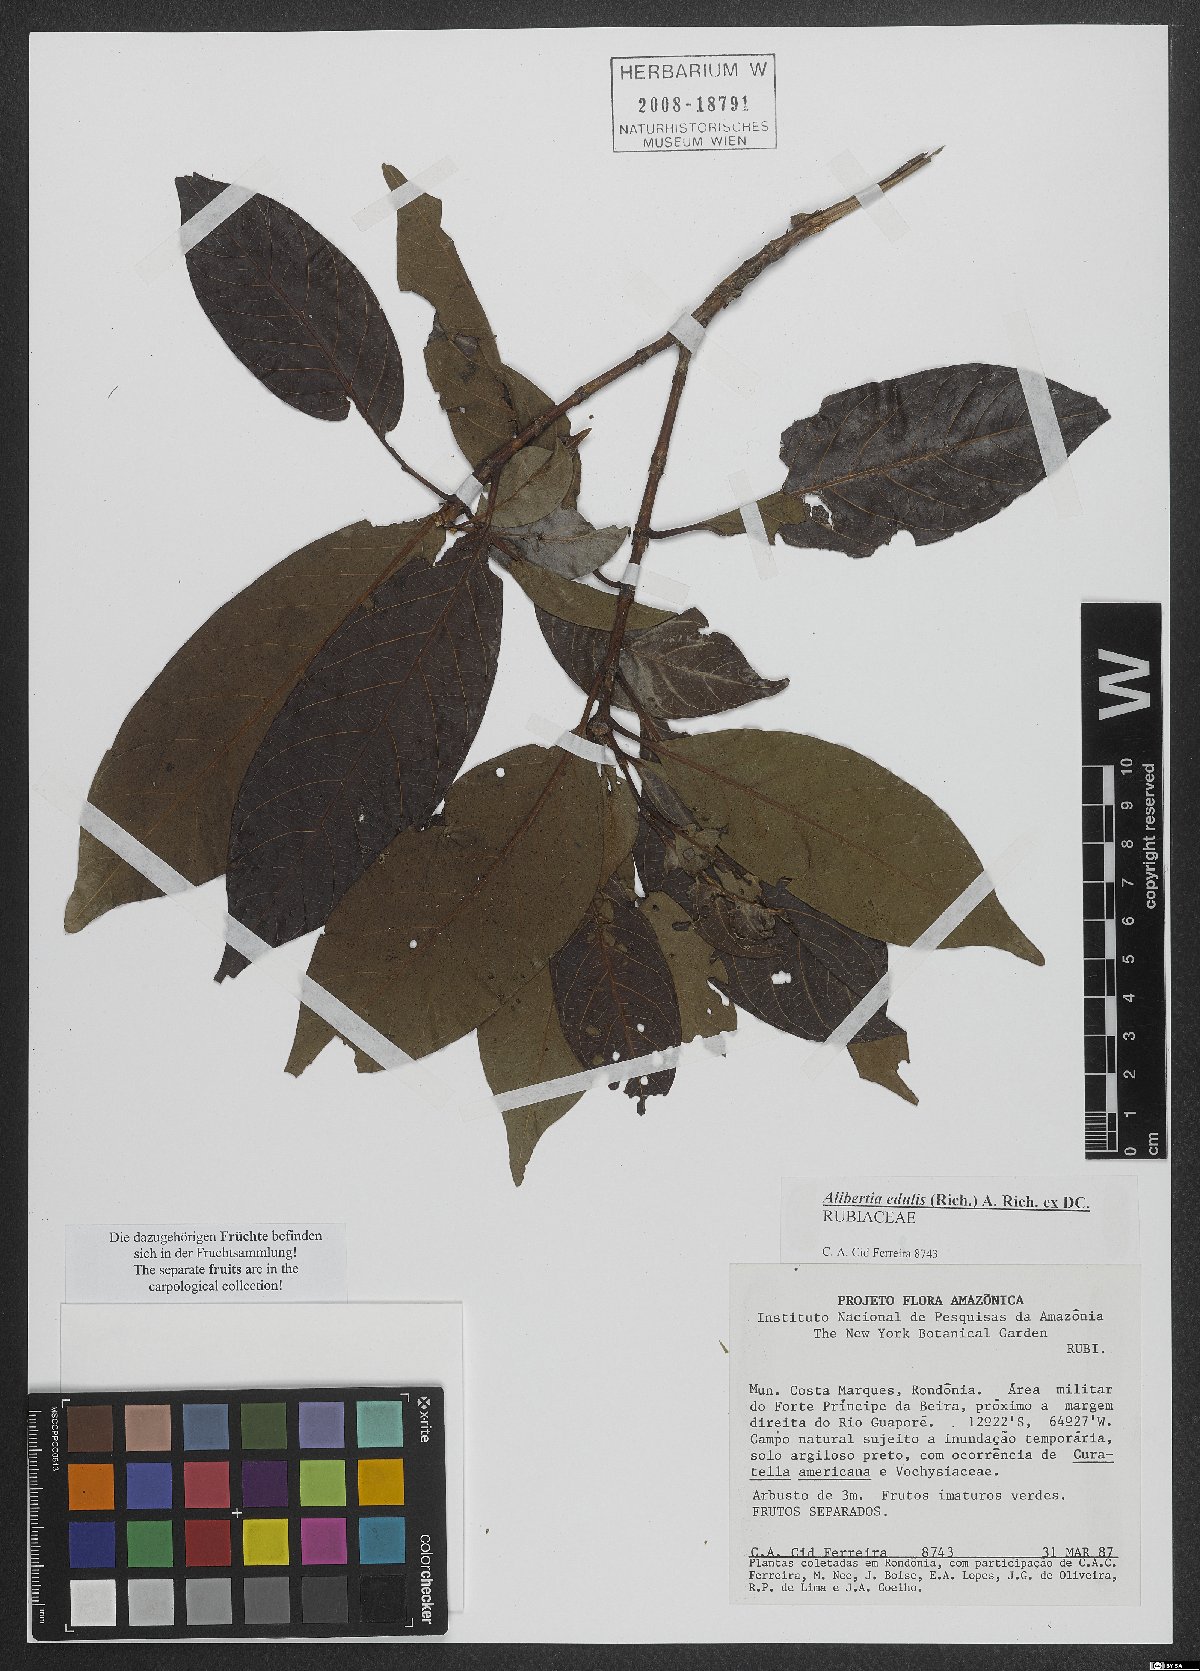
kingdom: Plantae
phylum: Tracheophyta
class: Magnoliopsida
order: Gentianales
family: Rubiaceae
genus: Alibertia
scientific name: Alibertia edulis
